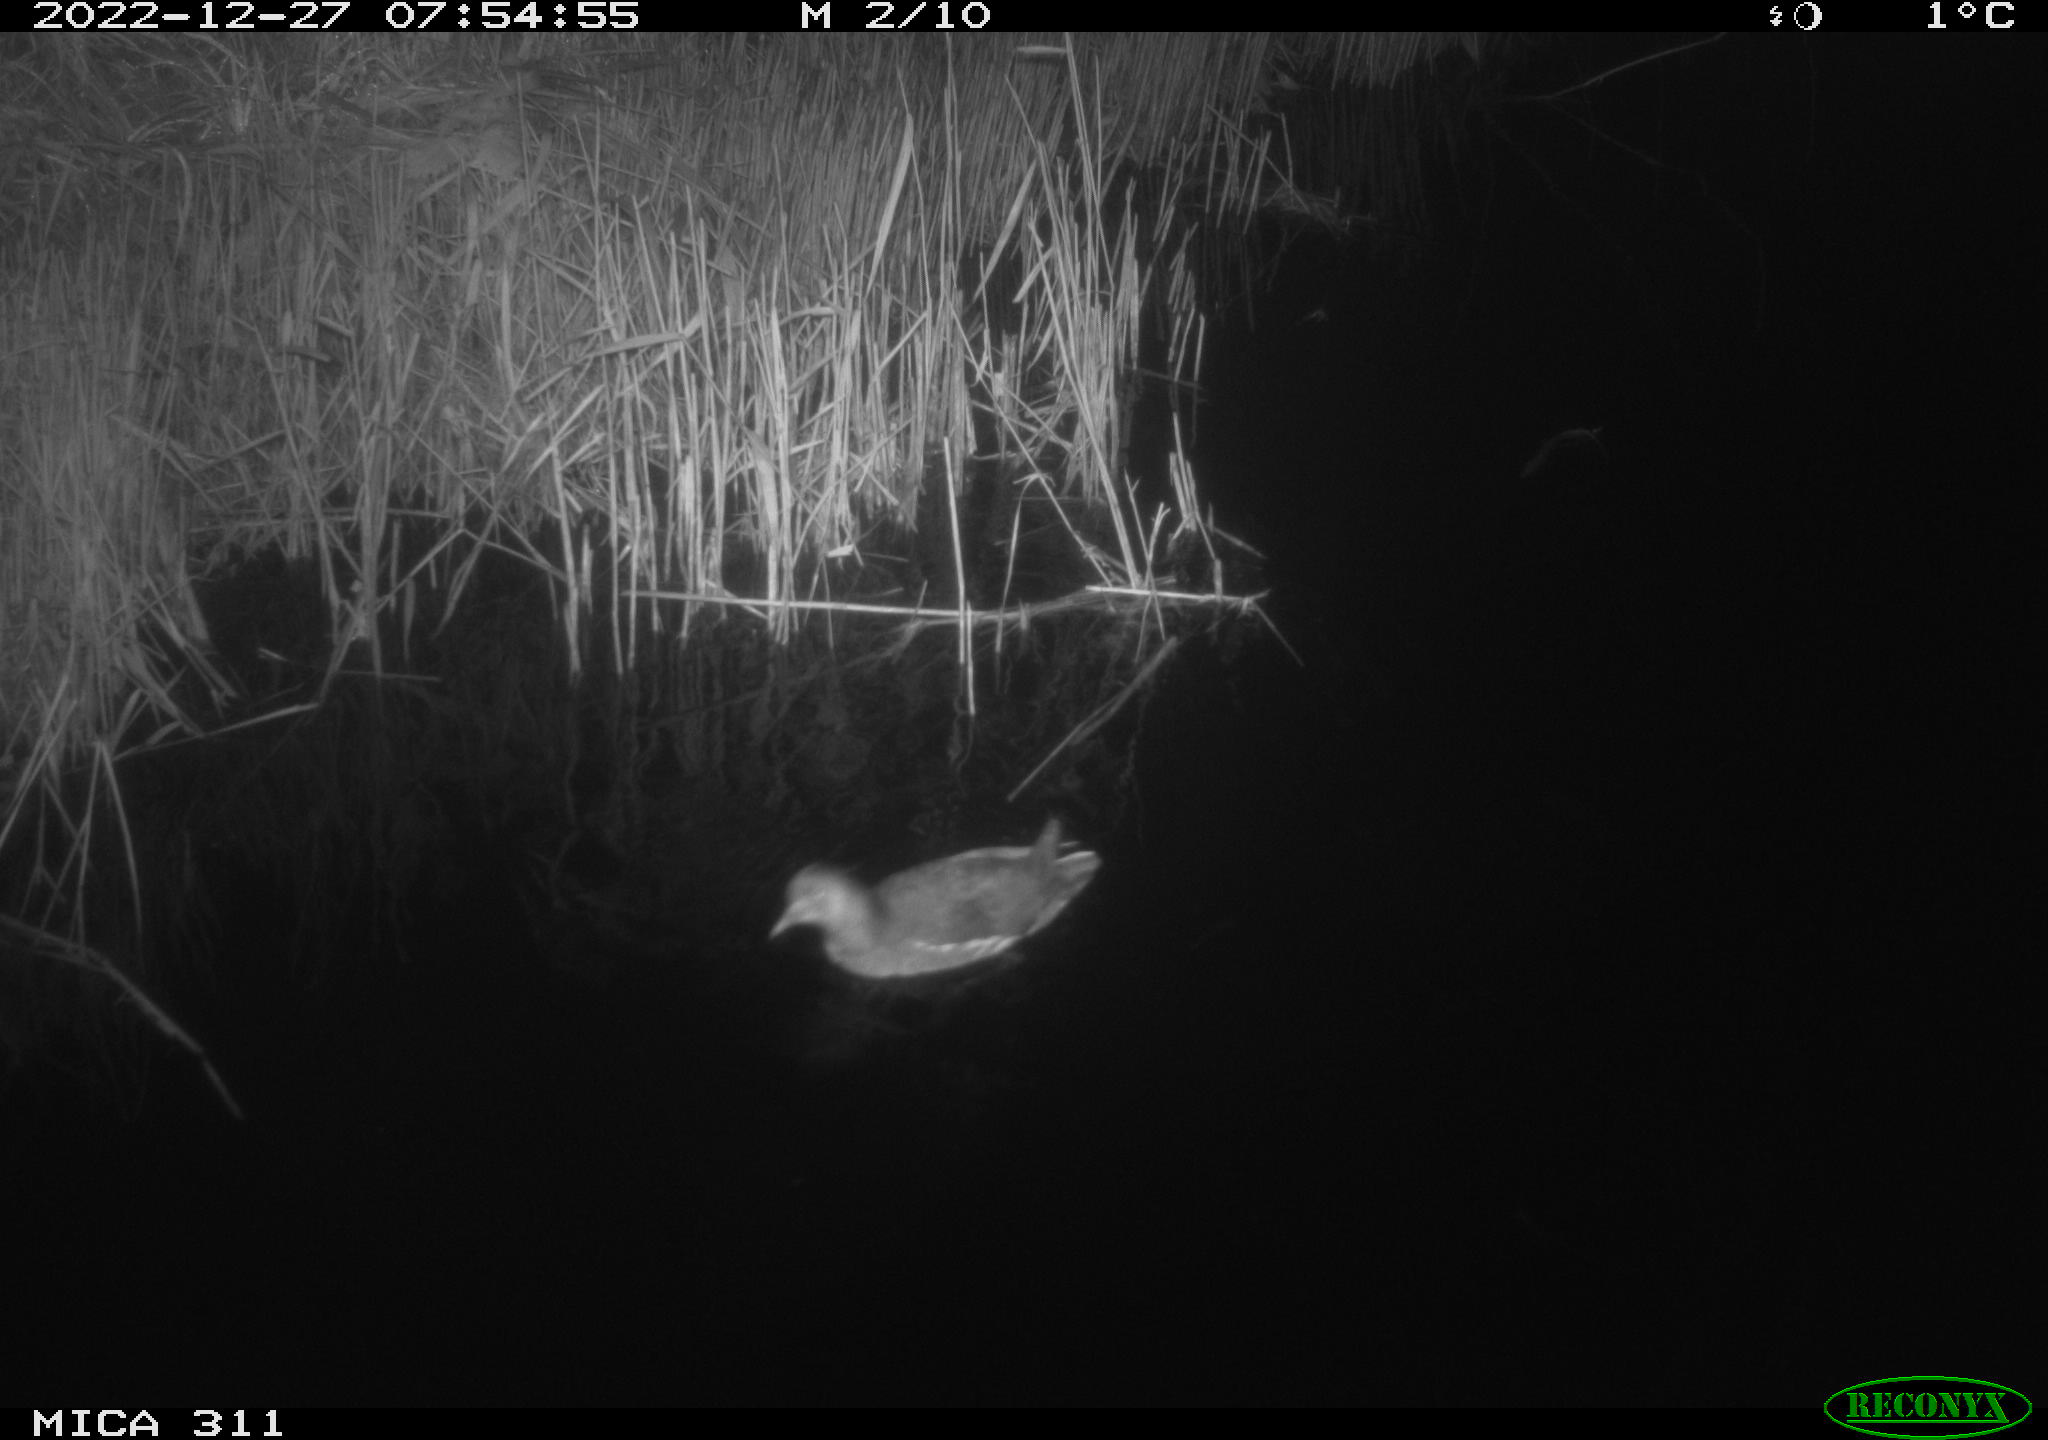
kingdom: Animalia
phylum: Chordata
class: Aves
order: Gruiformes
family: Rallidae
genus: Gallinula
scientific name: Gallinula chloropus
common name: Common moorhen
